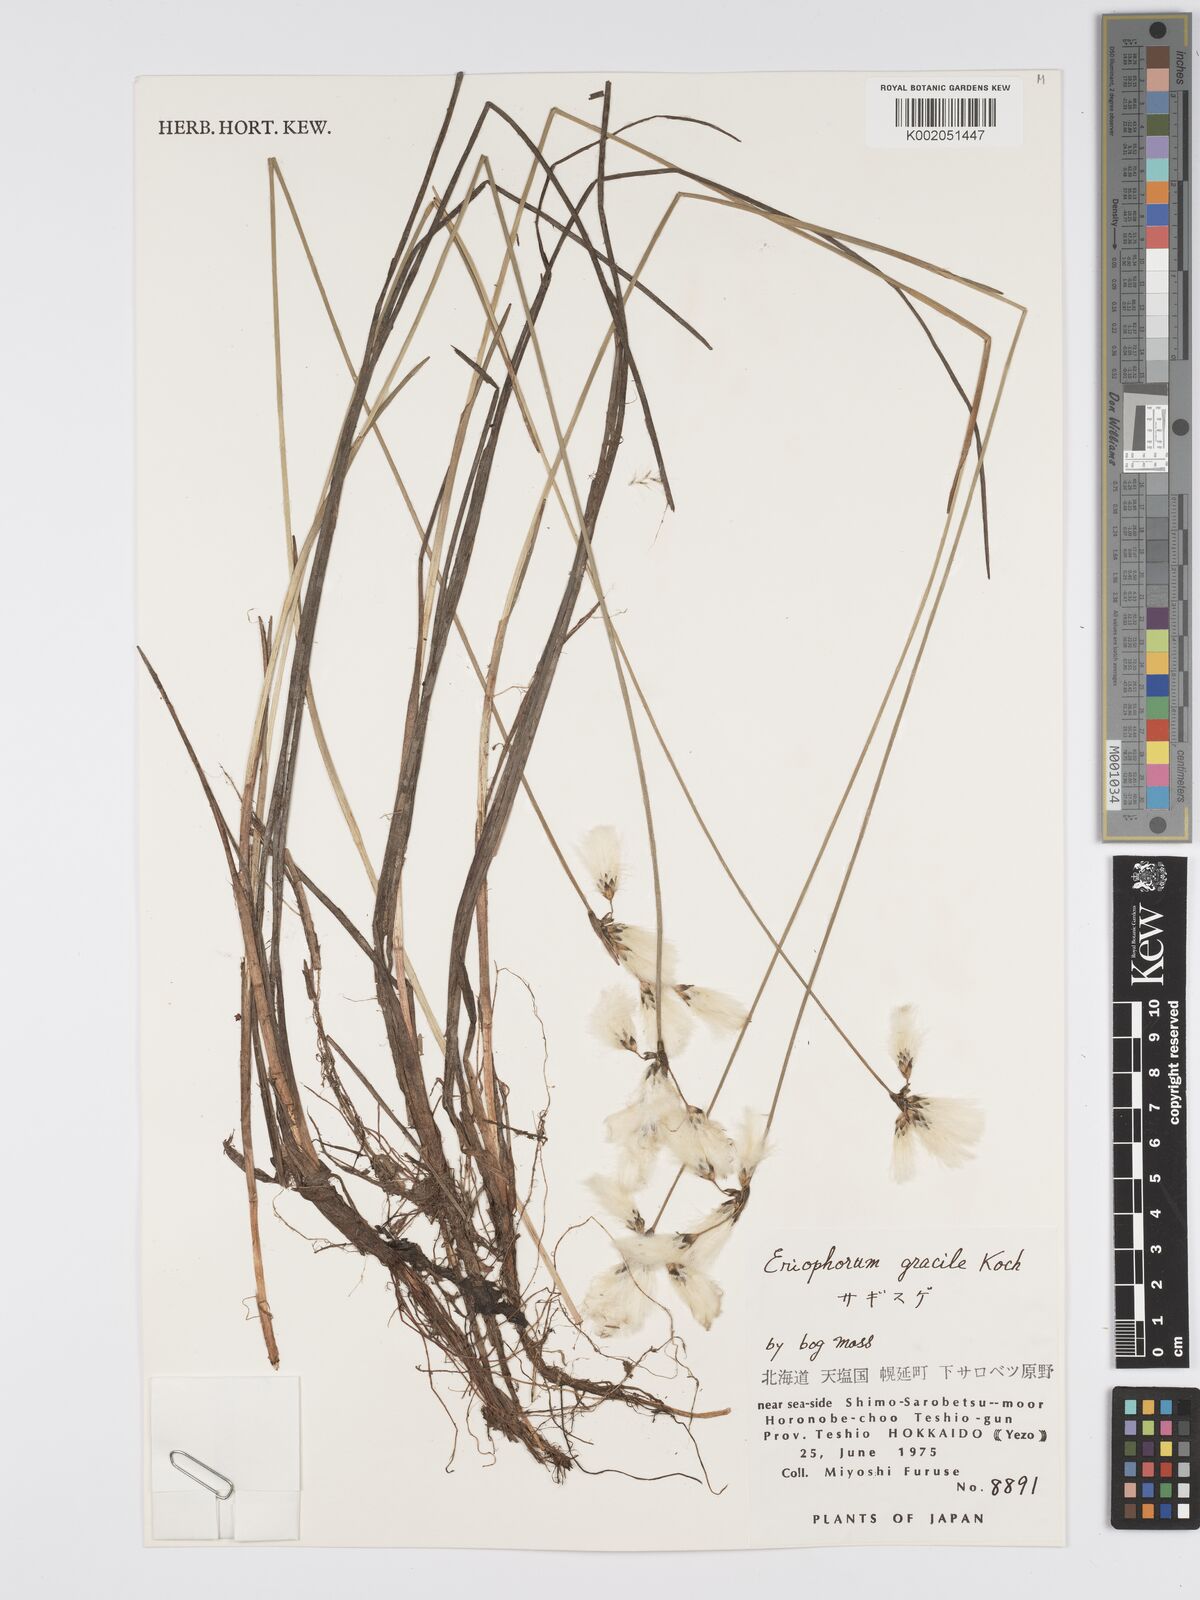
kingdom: Plantae
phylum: Tracheophyta
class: Liliopsida
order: Poales
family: Cyperaceae
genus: Eriophorum
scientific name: Eriophorum vaginatum
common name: Hare's-tail cottongrass
